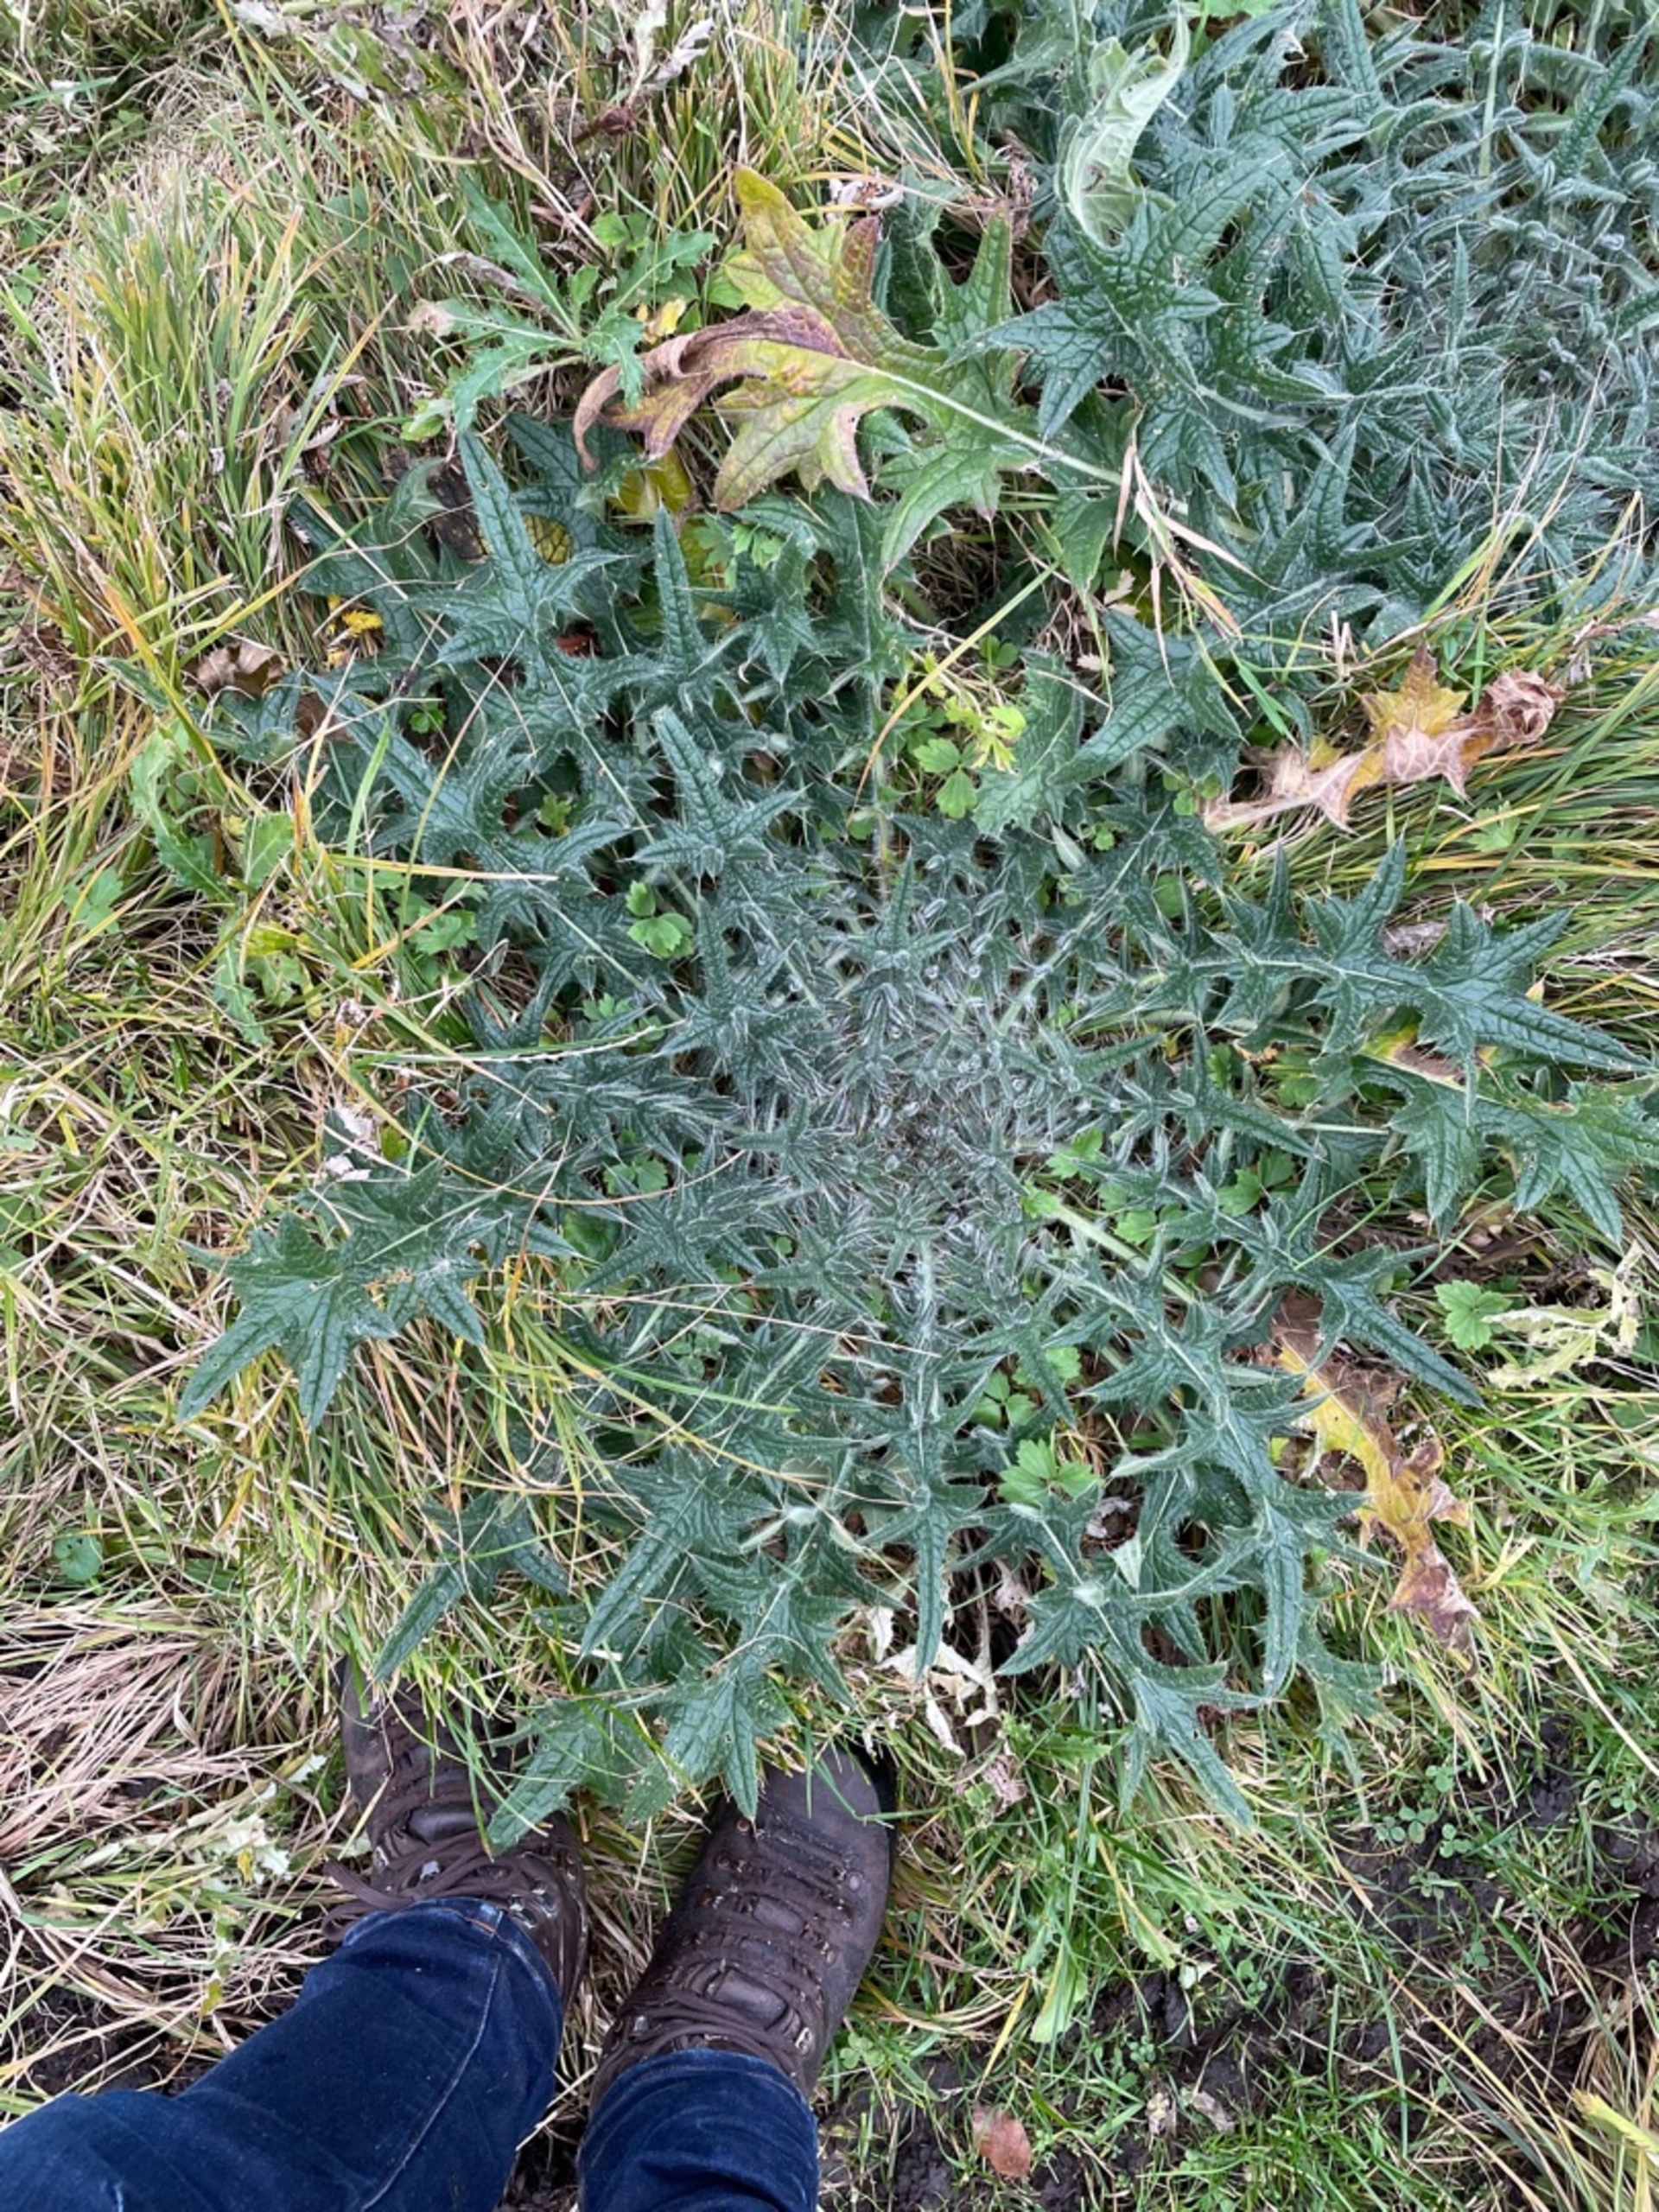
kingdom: Plantae
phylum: Tracheophyta
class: Magnoliopsida
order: Asterales
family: Asteraceae
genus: Cirsium
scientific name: Cirsium vulgare
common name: Horse-tidsel
